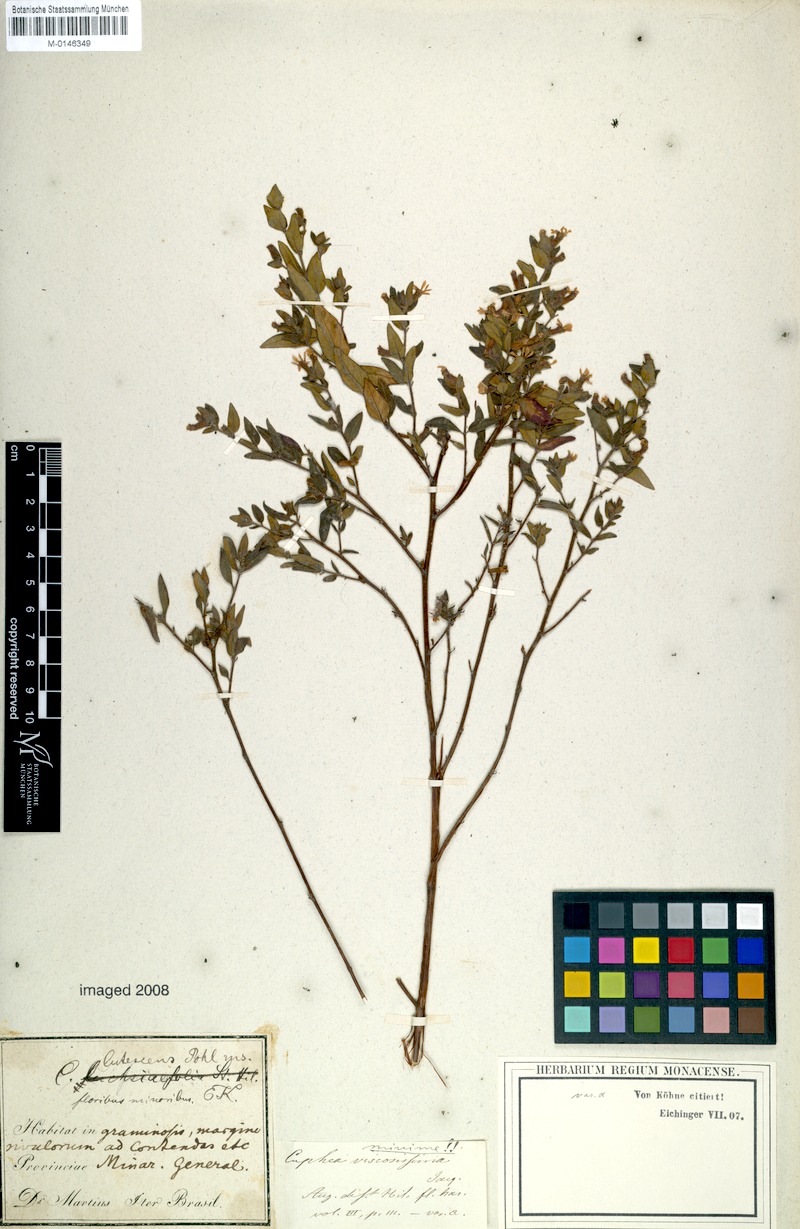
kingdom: Plantae
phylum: Tracheophyta
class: Magnoliopsida
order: Myrtales
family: Lythraceae
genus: Cuphea
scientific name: Cuphea lutescens
